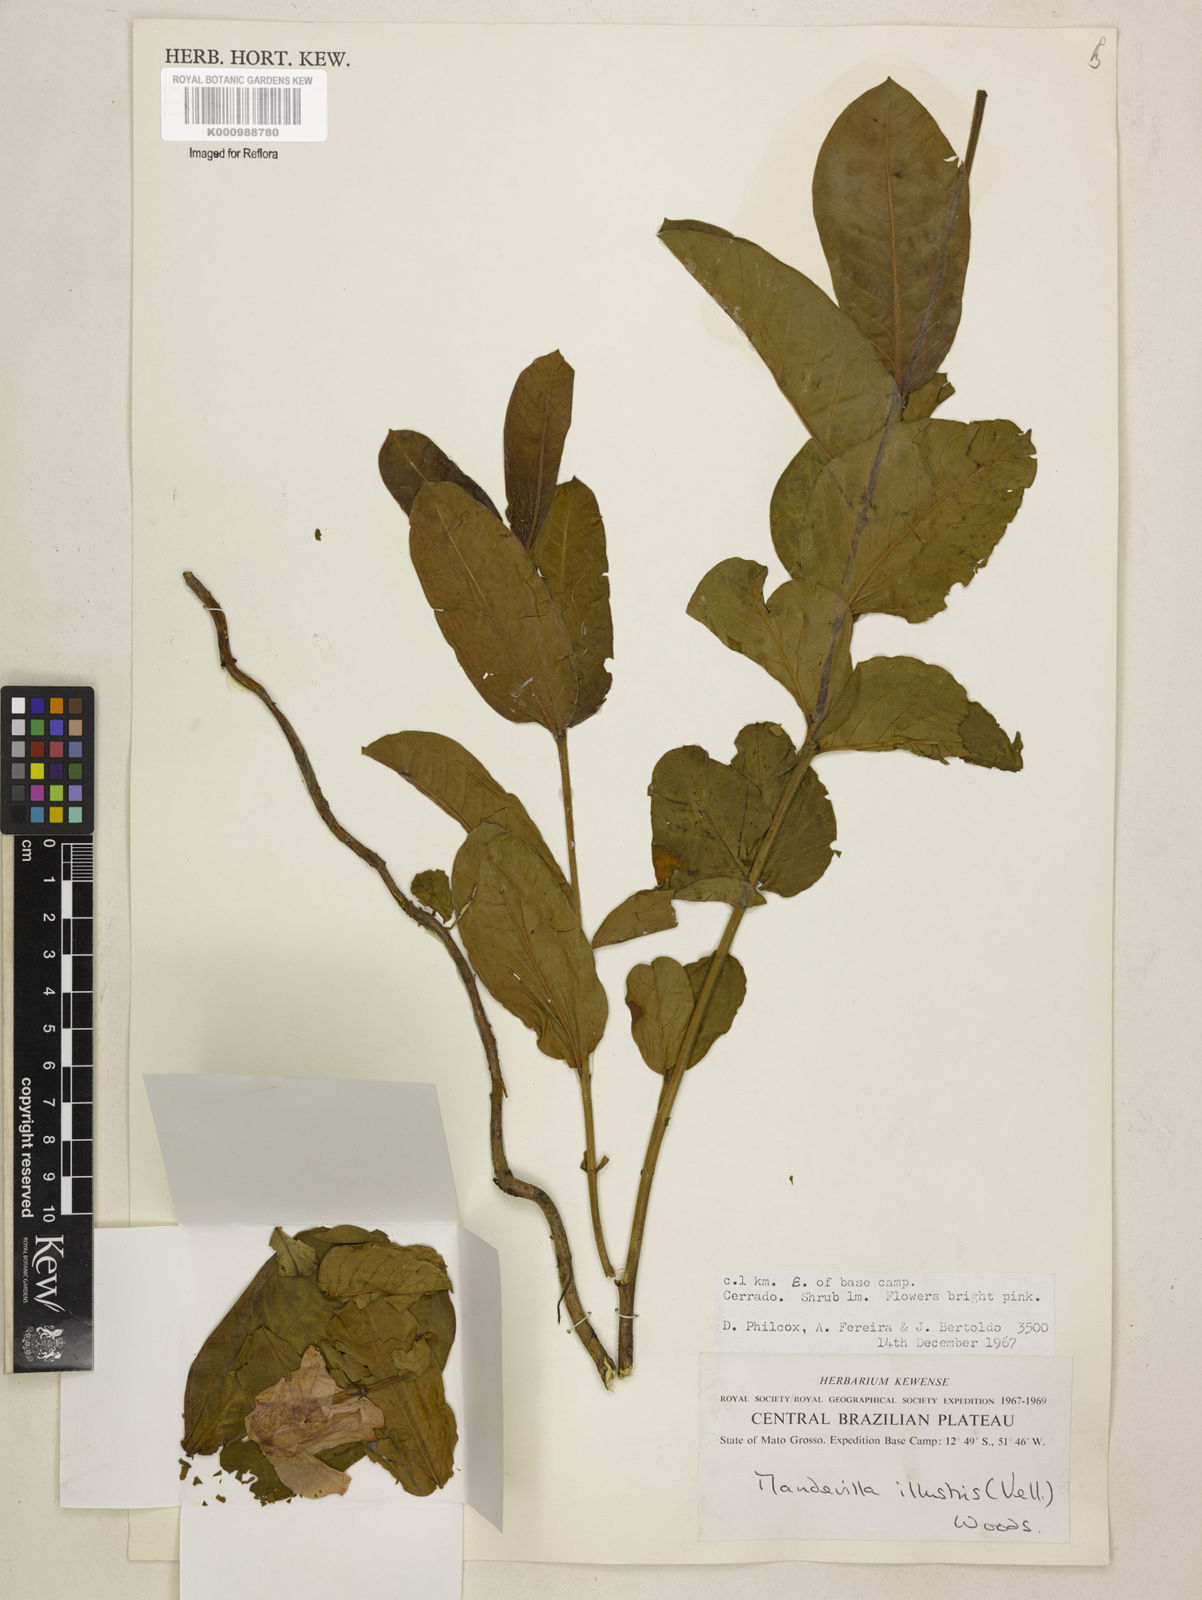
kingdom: Plantae
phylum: Tracheophyta
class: Magnoliopsida
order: Gentianales
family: Apocynaceae
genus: Mandevilla
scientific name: Mandevilla illustris
